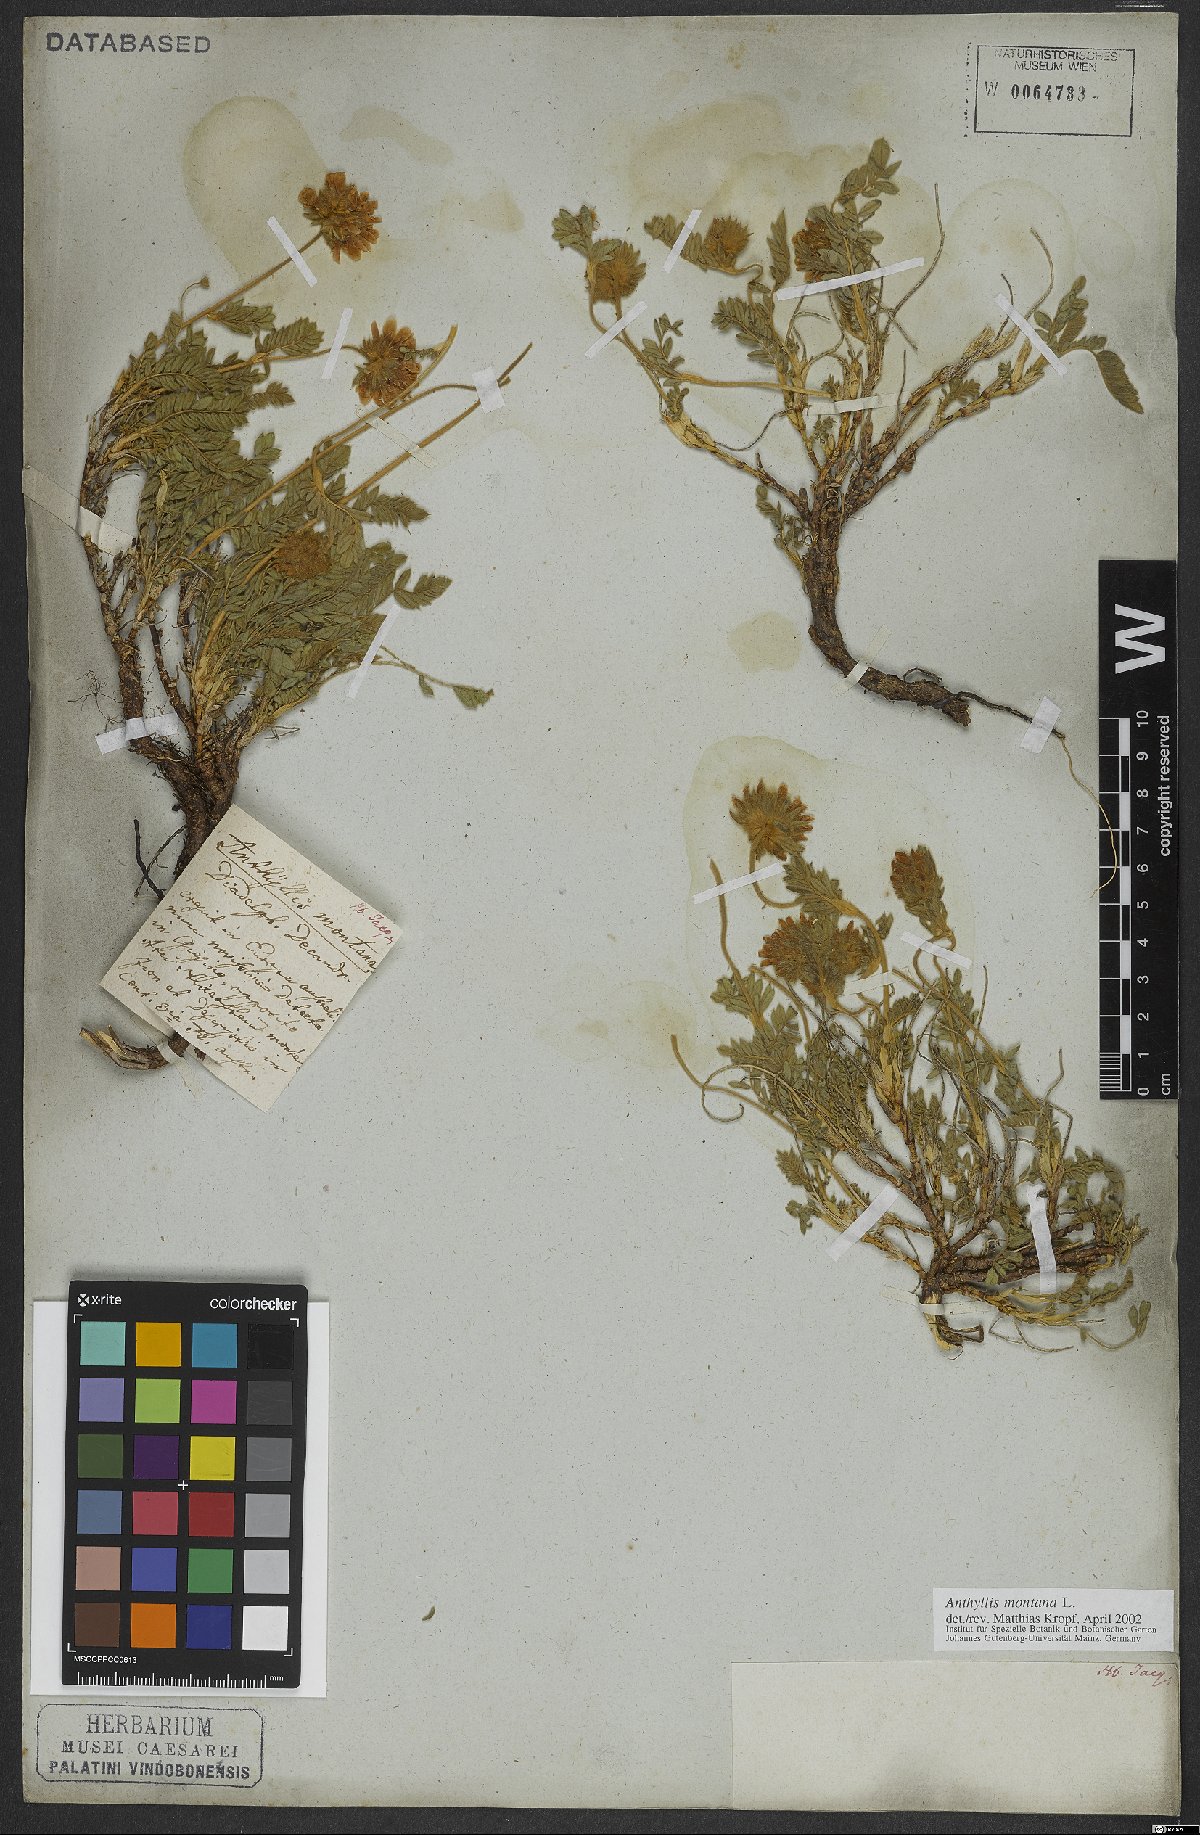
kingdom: Plantae
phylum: Tracheophyta
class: Magnoliopsida
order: Fabales
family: Fabaceae
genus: Anthyllis
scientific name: Anthyllis montana
